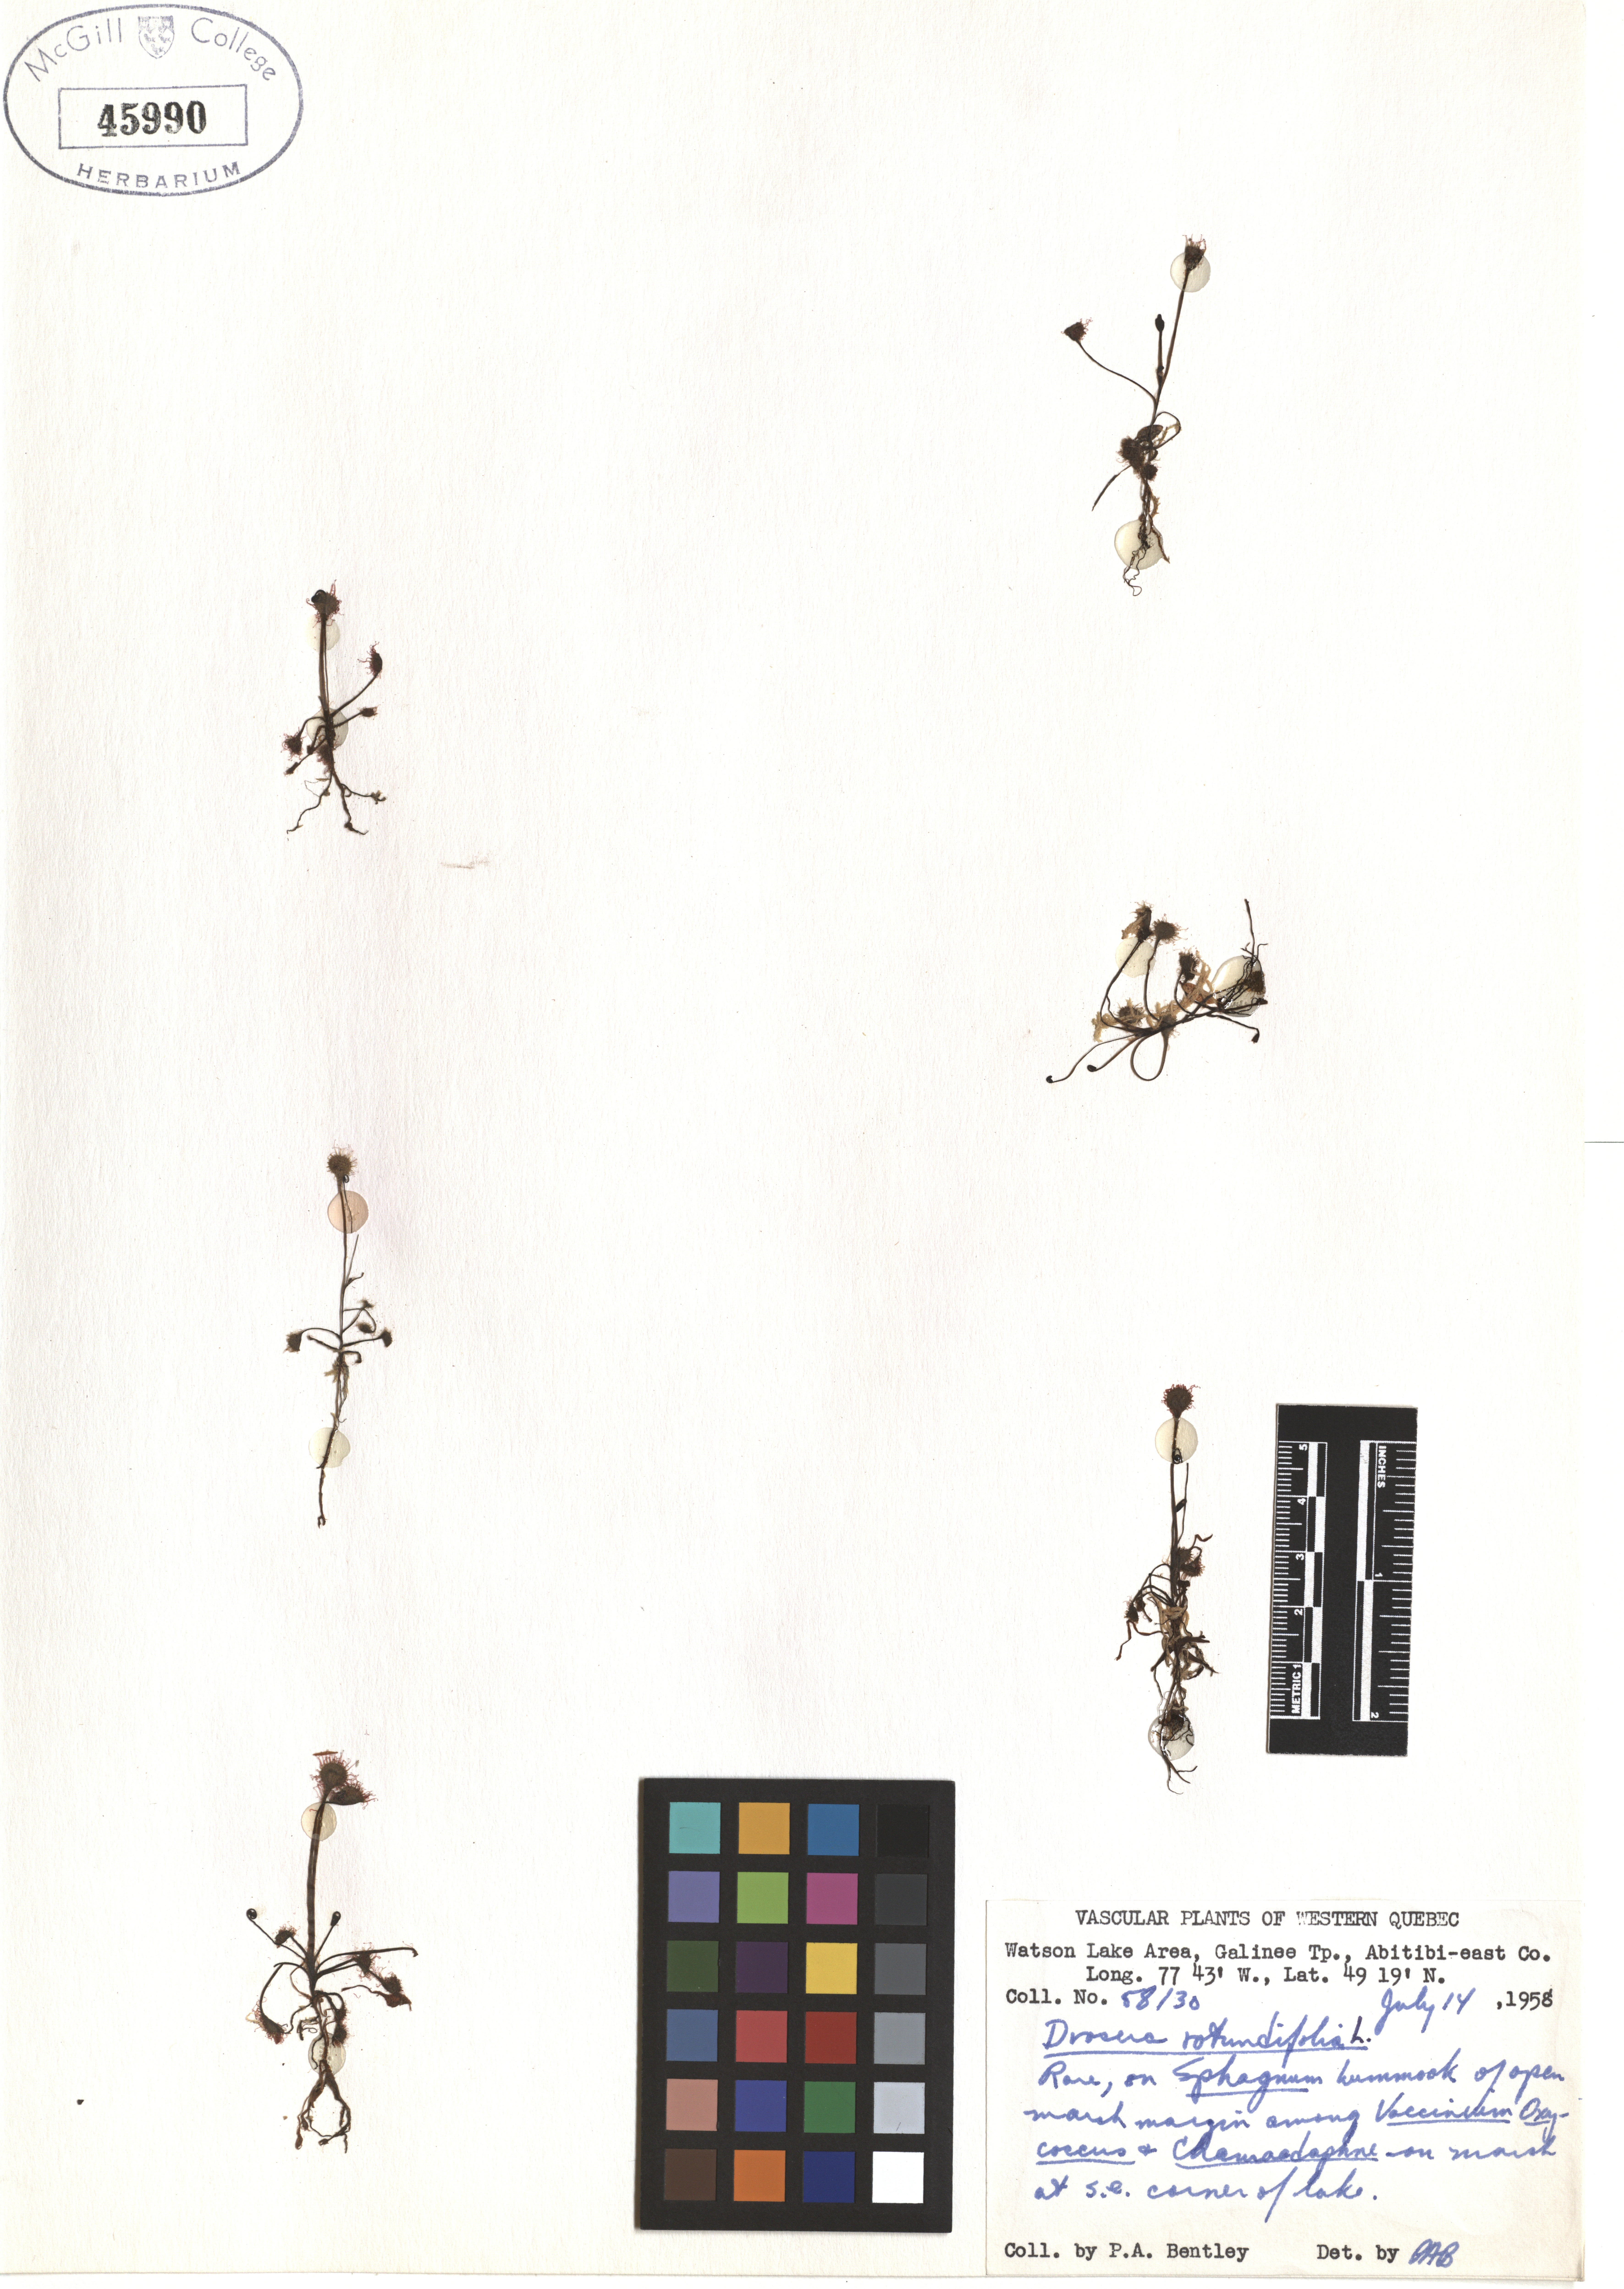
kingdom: Plantae
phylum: Tracheophyta
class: Magnoliopsida
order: Caryophyllales
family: Droseraceae
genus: Drosera
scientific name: Drosera rotundifolia
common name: Round-leaved sundew
